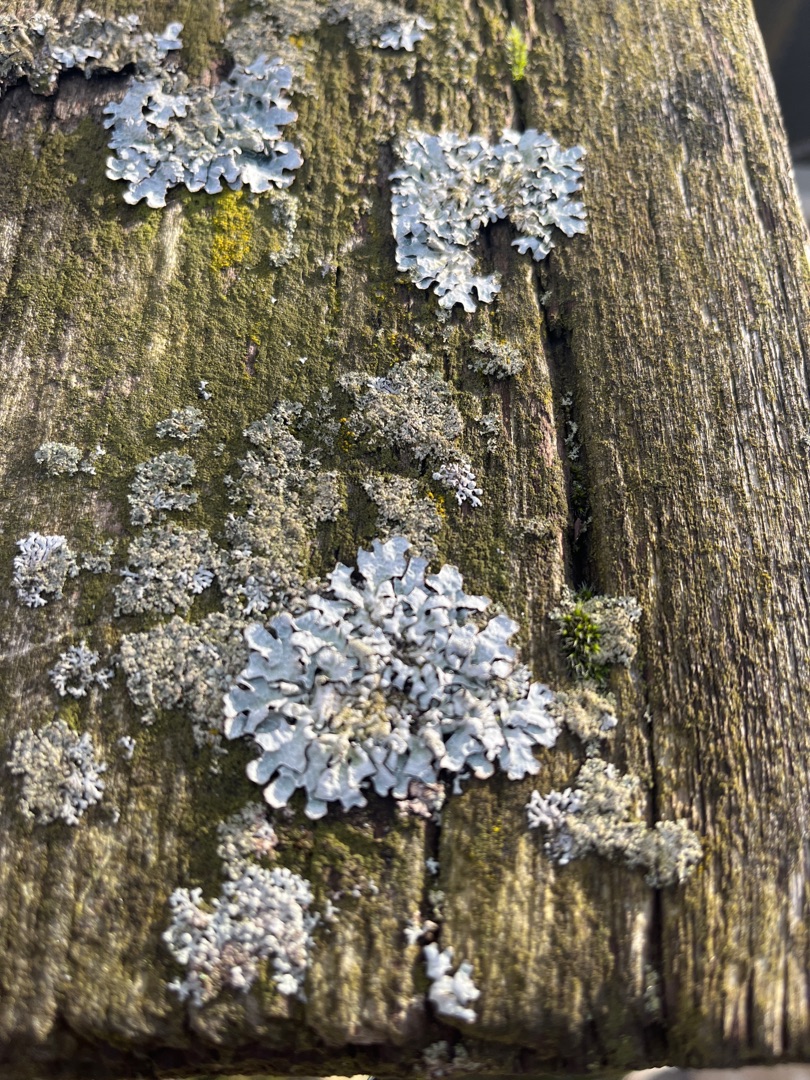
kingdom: Fungi
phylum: Ascomycota
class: Lecanoromycetes
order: Lecanorales
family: Parmeliaceae
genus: Parmelia
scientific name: Parmelia sulcata
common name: Rynket skållav
